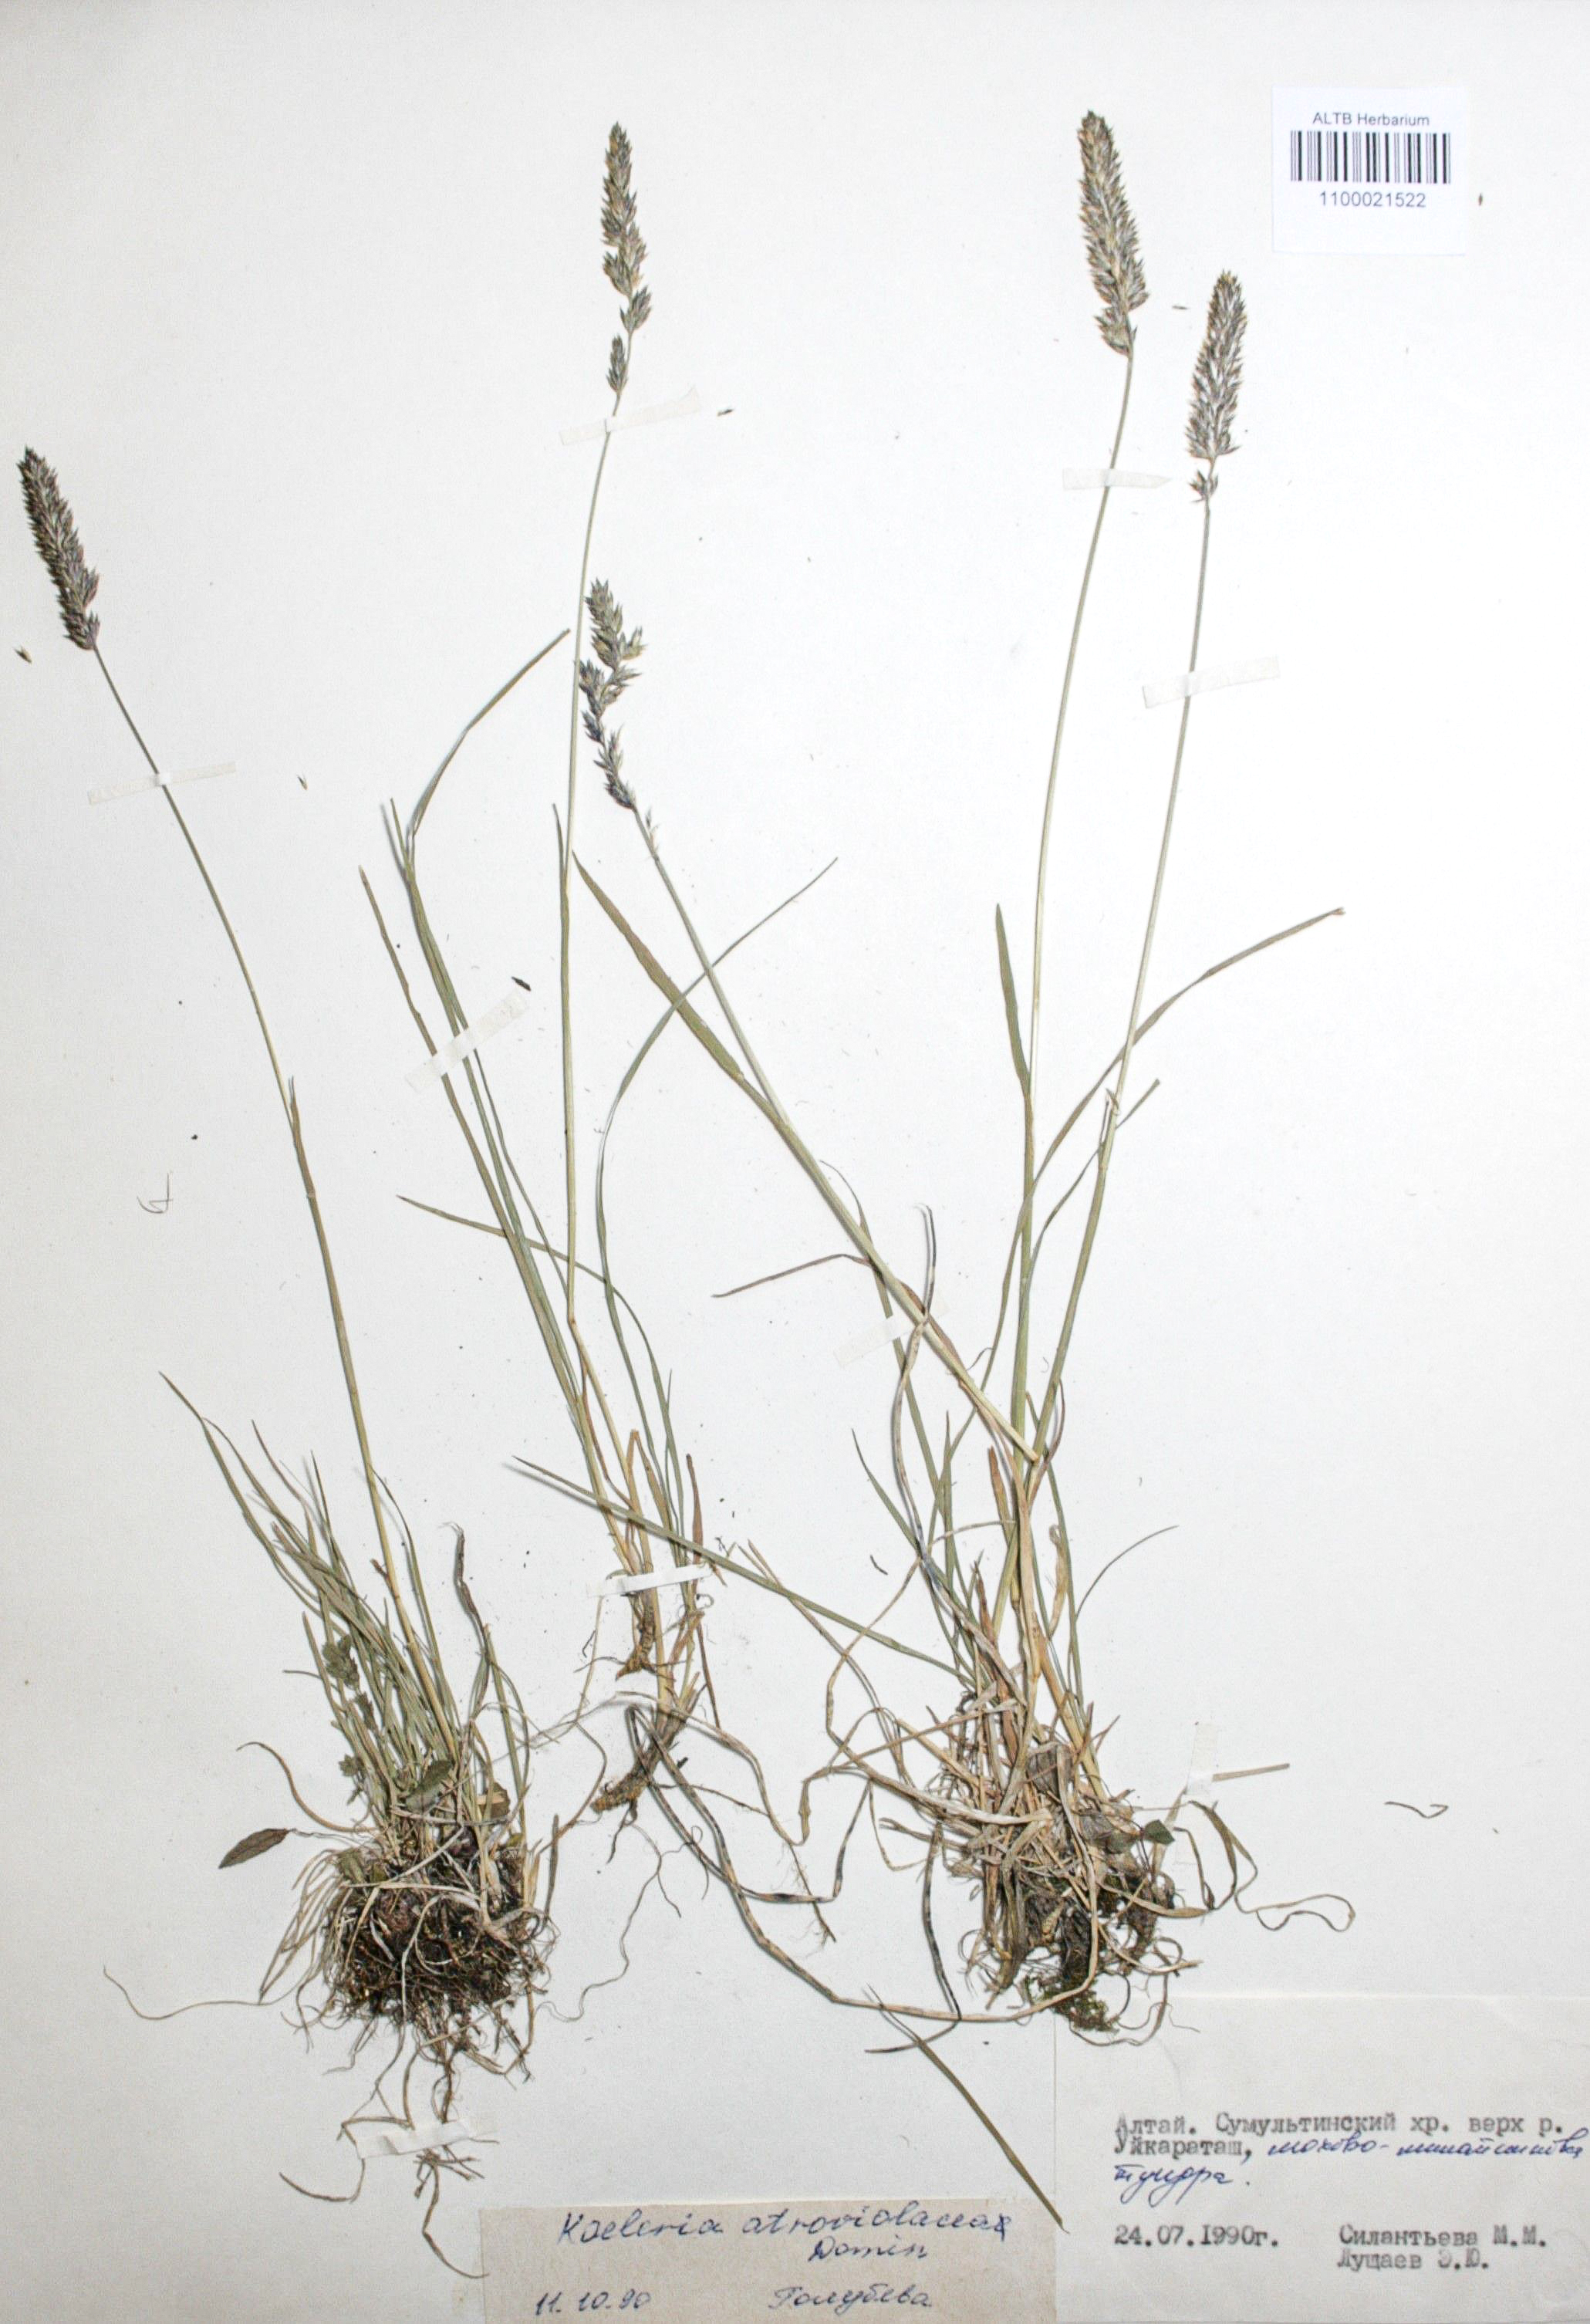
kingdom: Plantae
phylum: Tracheophyta
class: Liliopsida
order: Poales
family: Poaceae
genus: Koeleria
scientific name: Koeleria asiatica
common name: Eurasian junegrass
